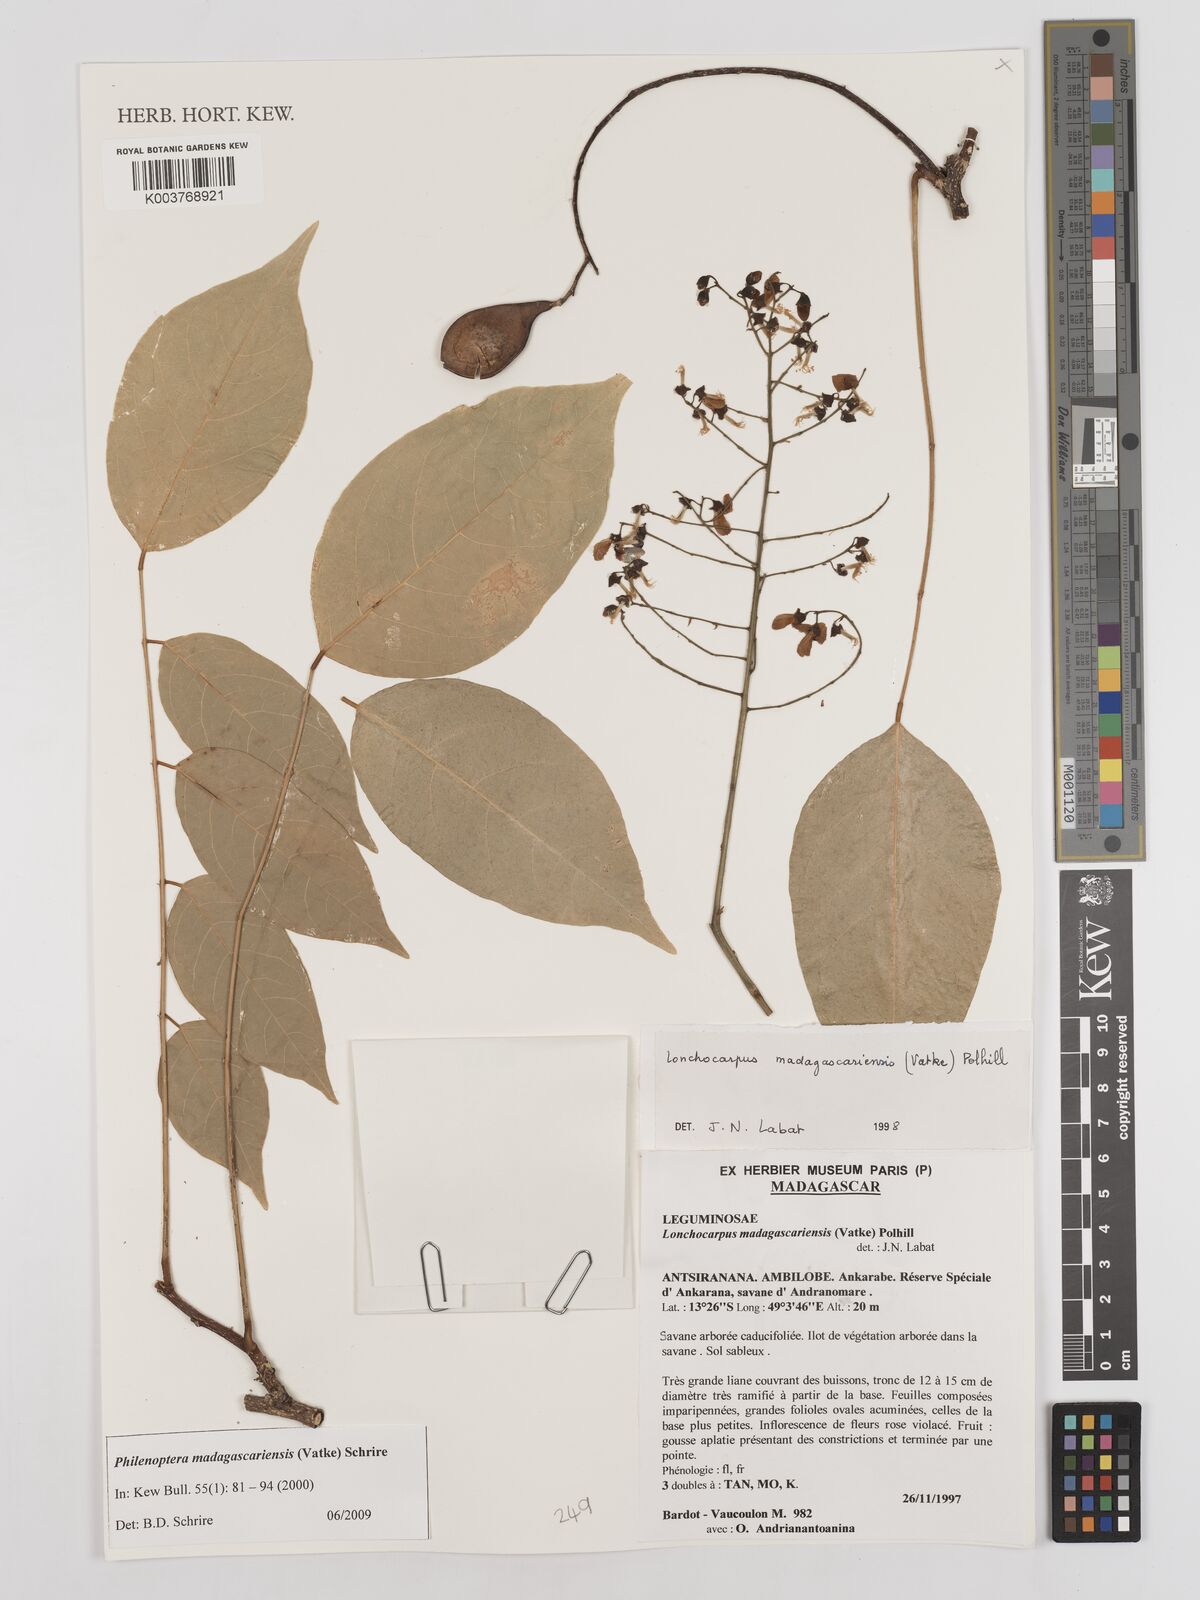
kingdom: Plantae
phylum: Tracheophyta
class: Magnoliopsida
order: Fabales
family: Fabaceae
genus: Lonchocarpus
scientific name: Lonchocarpus madagascariensis
